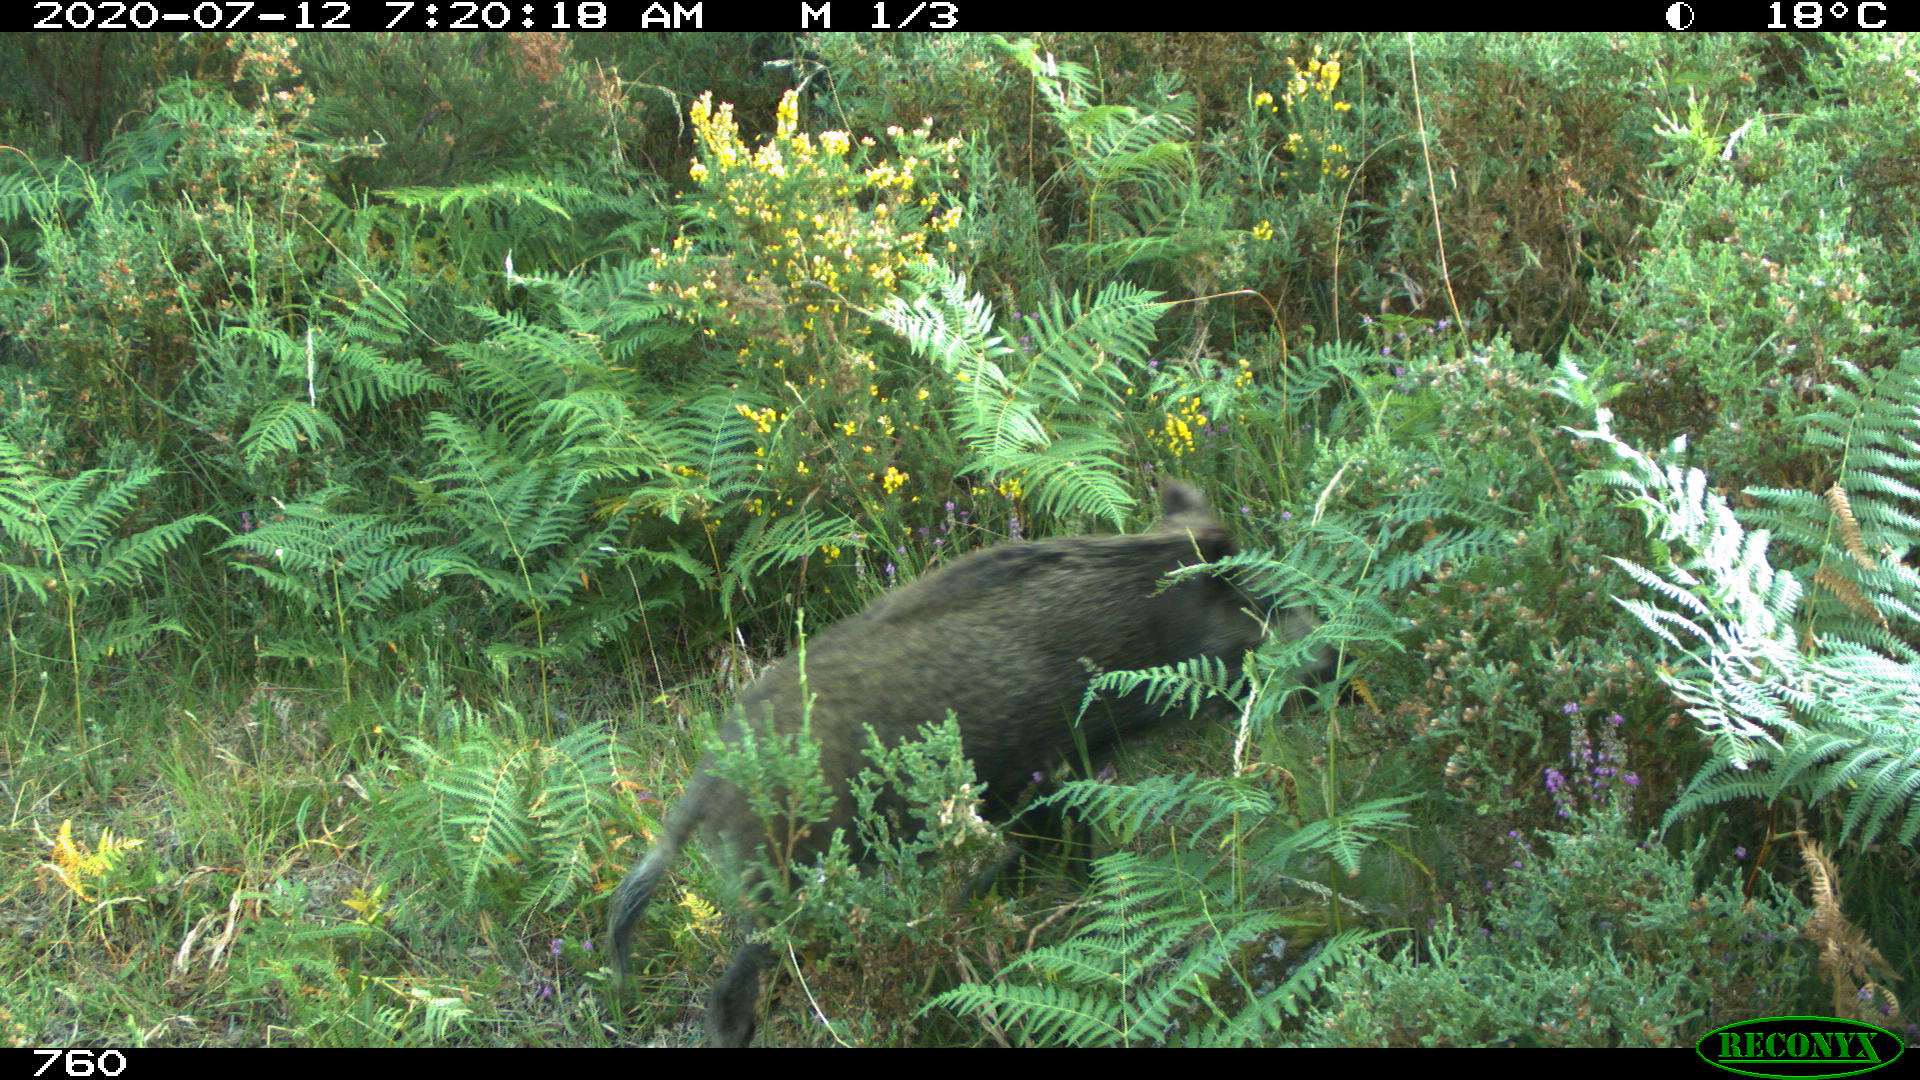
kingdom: Animalia
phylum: Chordata
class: Mammalia
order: Artiodactyla
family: Suidae
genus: Sus
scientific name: Sus scrofa
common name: Wild boar
